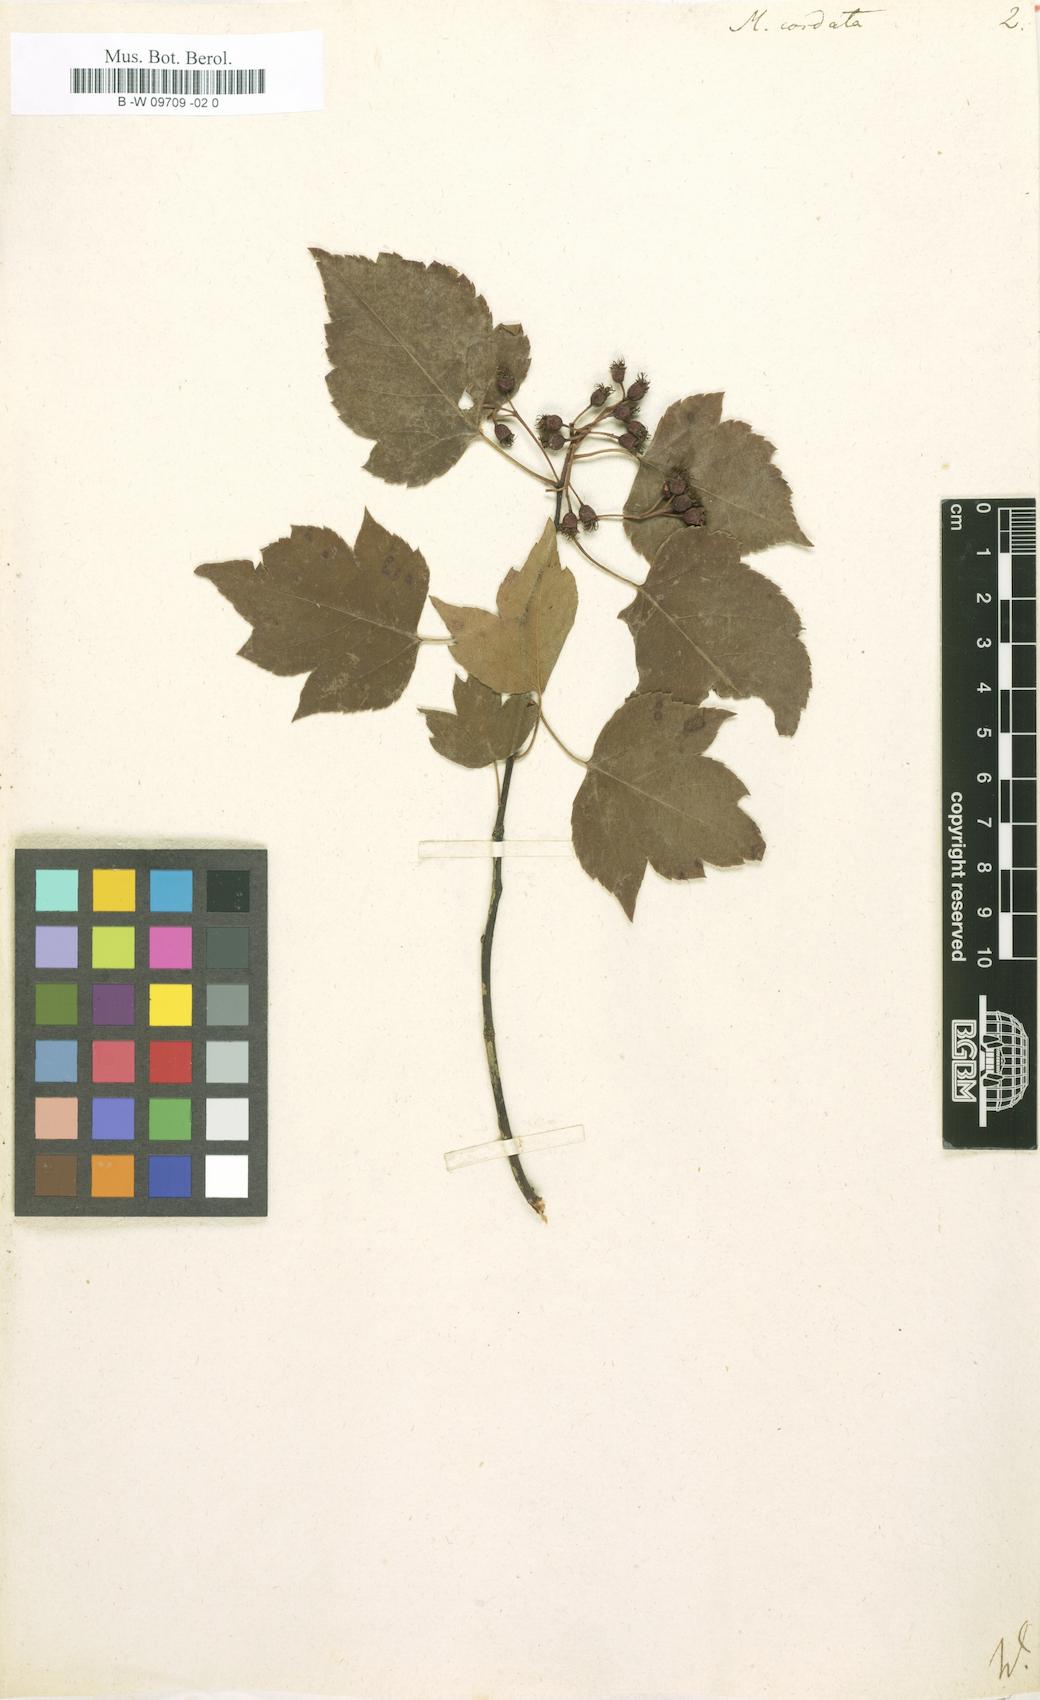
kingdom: Plantae
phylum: Tracheophyta
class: Magnoliopsida
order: Rosales
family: Rosaceae
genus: Crataegus
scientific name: Crataegus phaenopyrum
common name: Washington hawthorn
